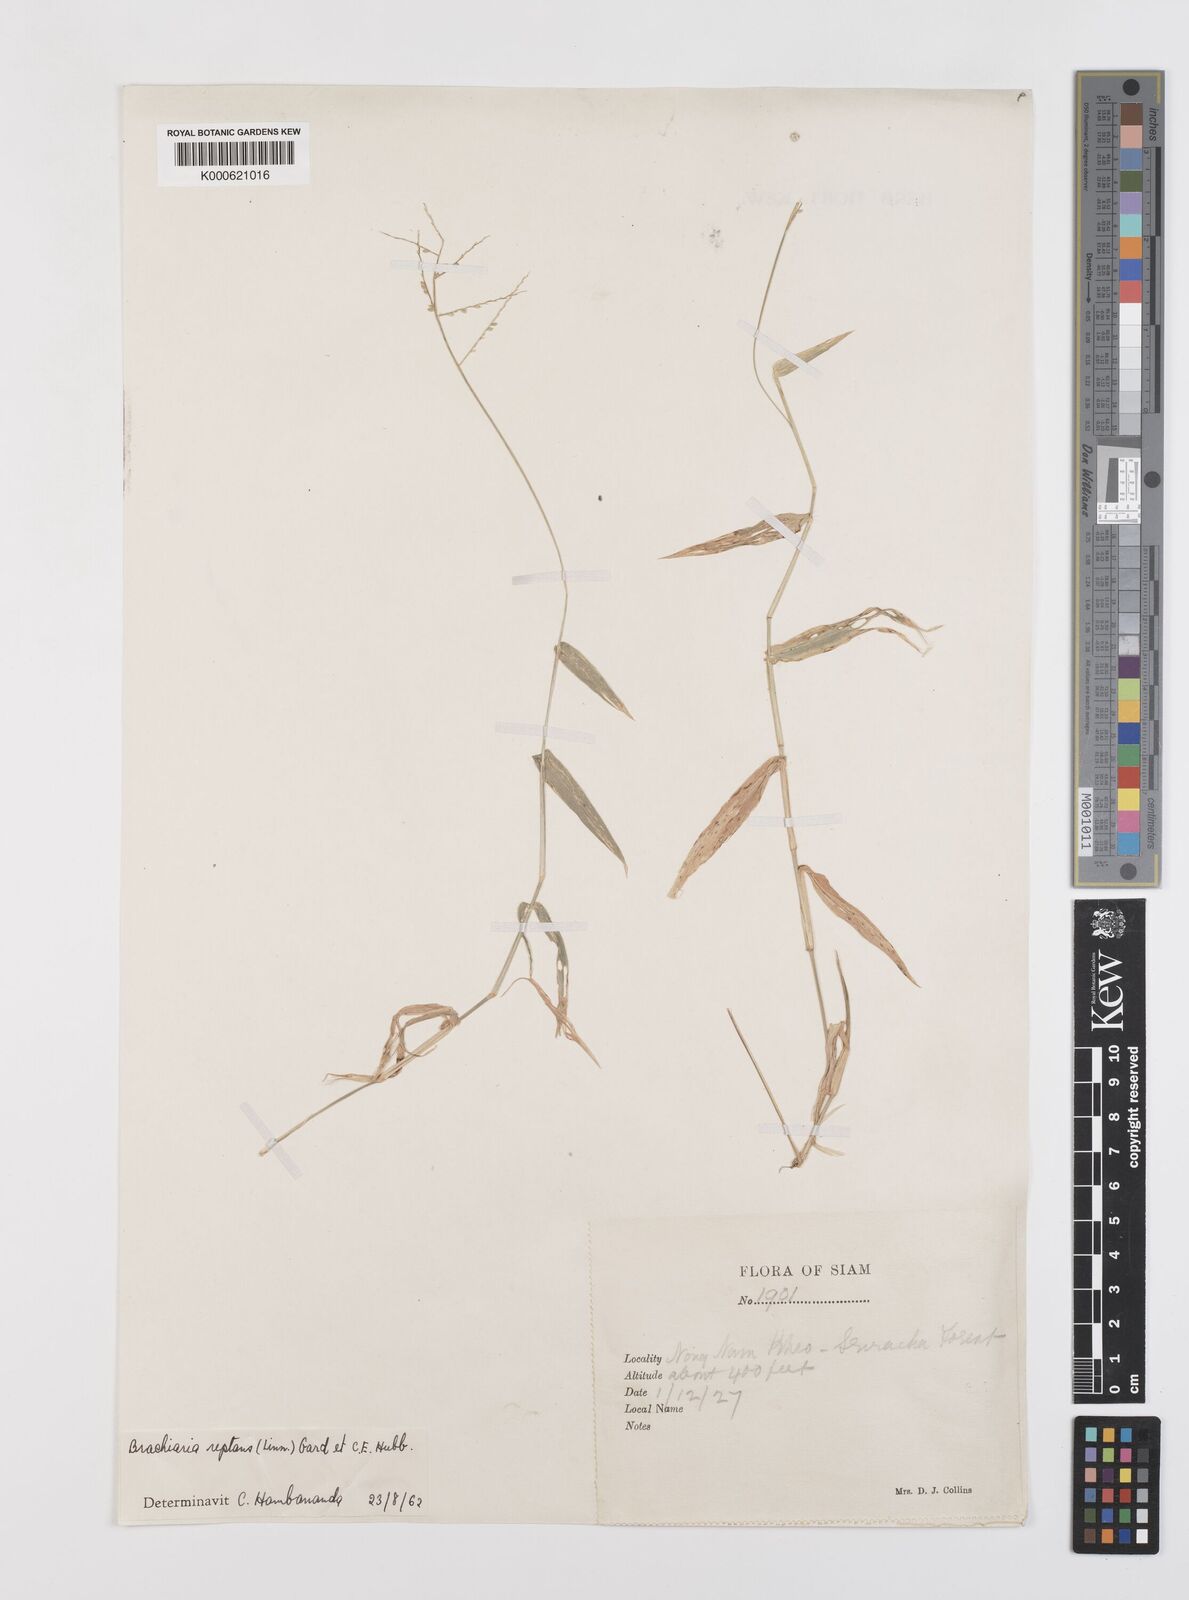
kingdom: Plantae
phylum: Tracheophyta
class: Liliopsida
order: Poales
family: Poaceae
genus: Urochloa
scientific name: Urochloa reptans
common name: Sprawling signalgrass
